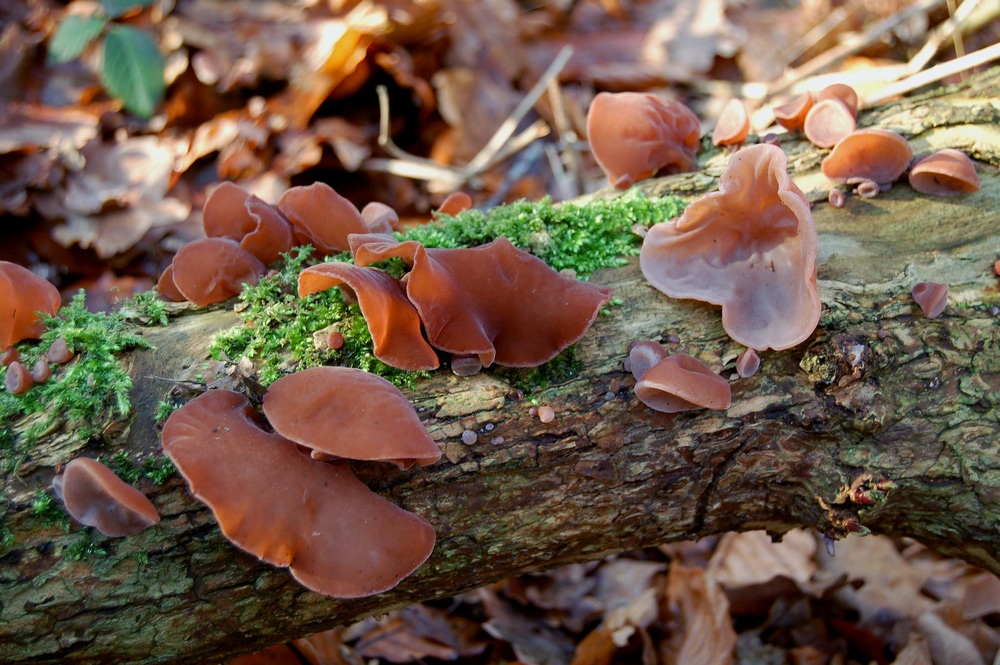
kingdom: Fungi
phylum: Basidiomycota
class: Agaricomycetes
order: Auriculariales
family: Auriculariaceae
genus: Auricularia
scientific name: Auricularia auricula-judae
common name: almindelig judasøre
